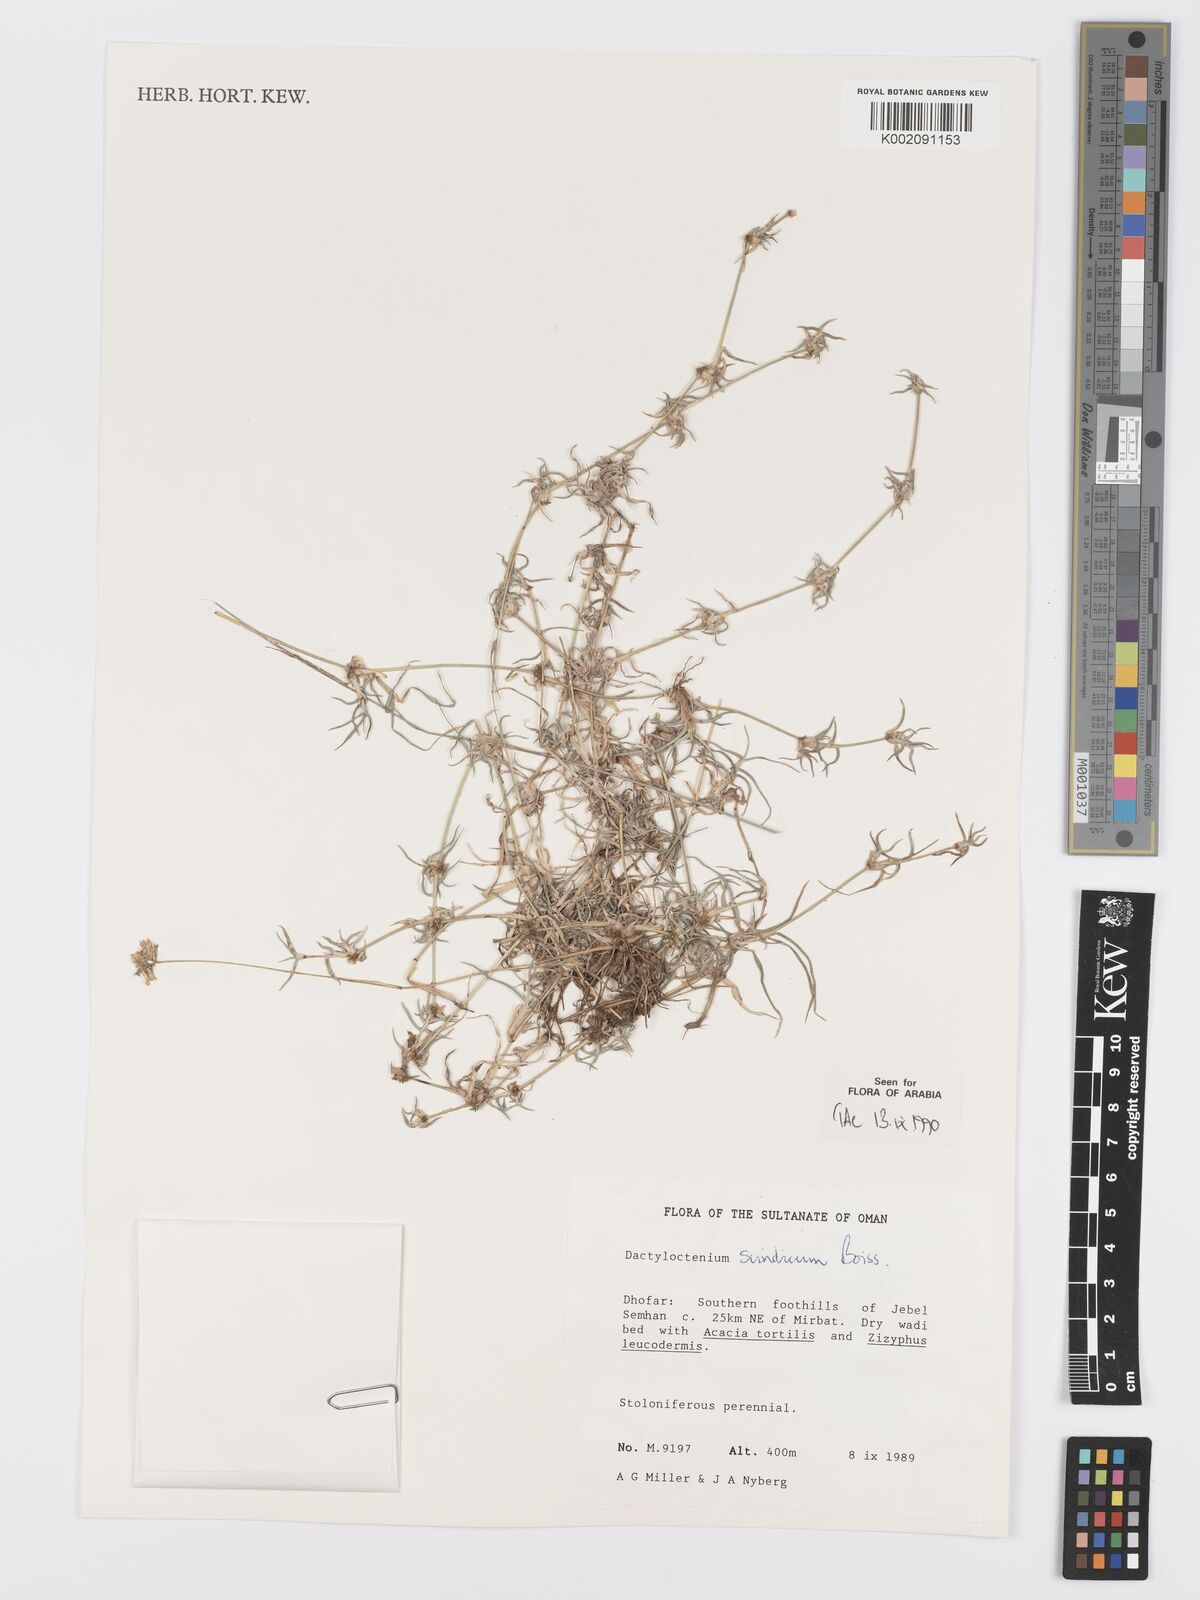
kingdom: Plantae
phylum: Tracheophyta
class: Liliopsida
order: Poales
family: Poaceae
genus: Dactyloctenium
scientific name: Dactyloctenium scindicum
